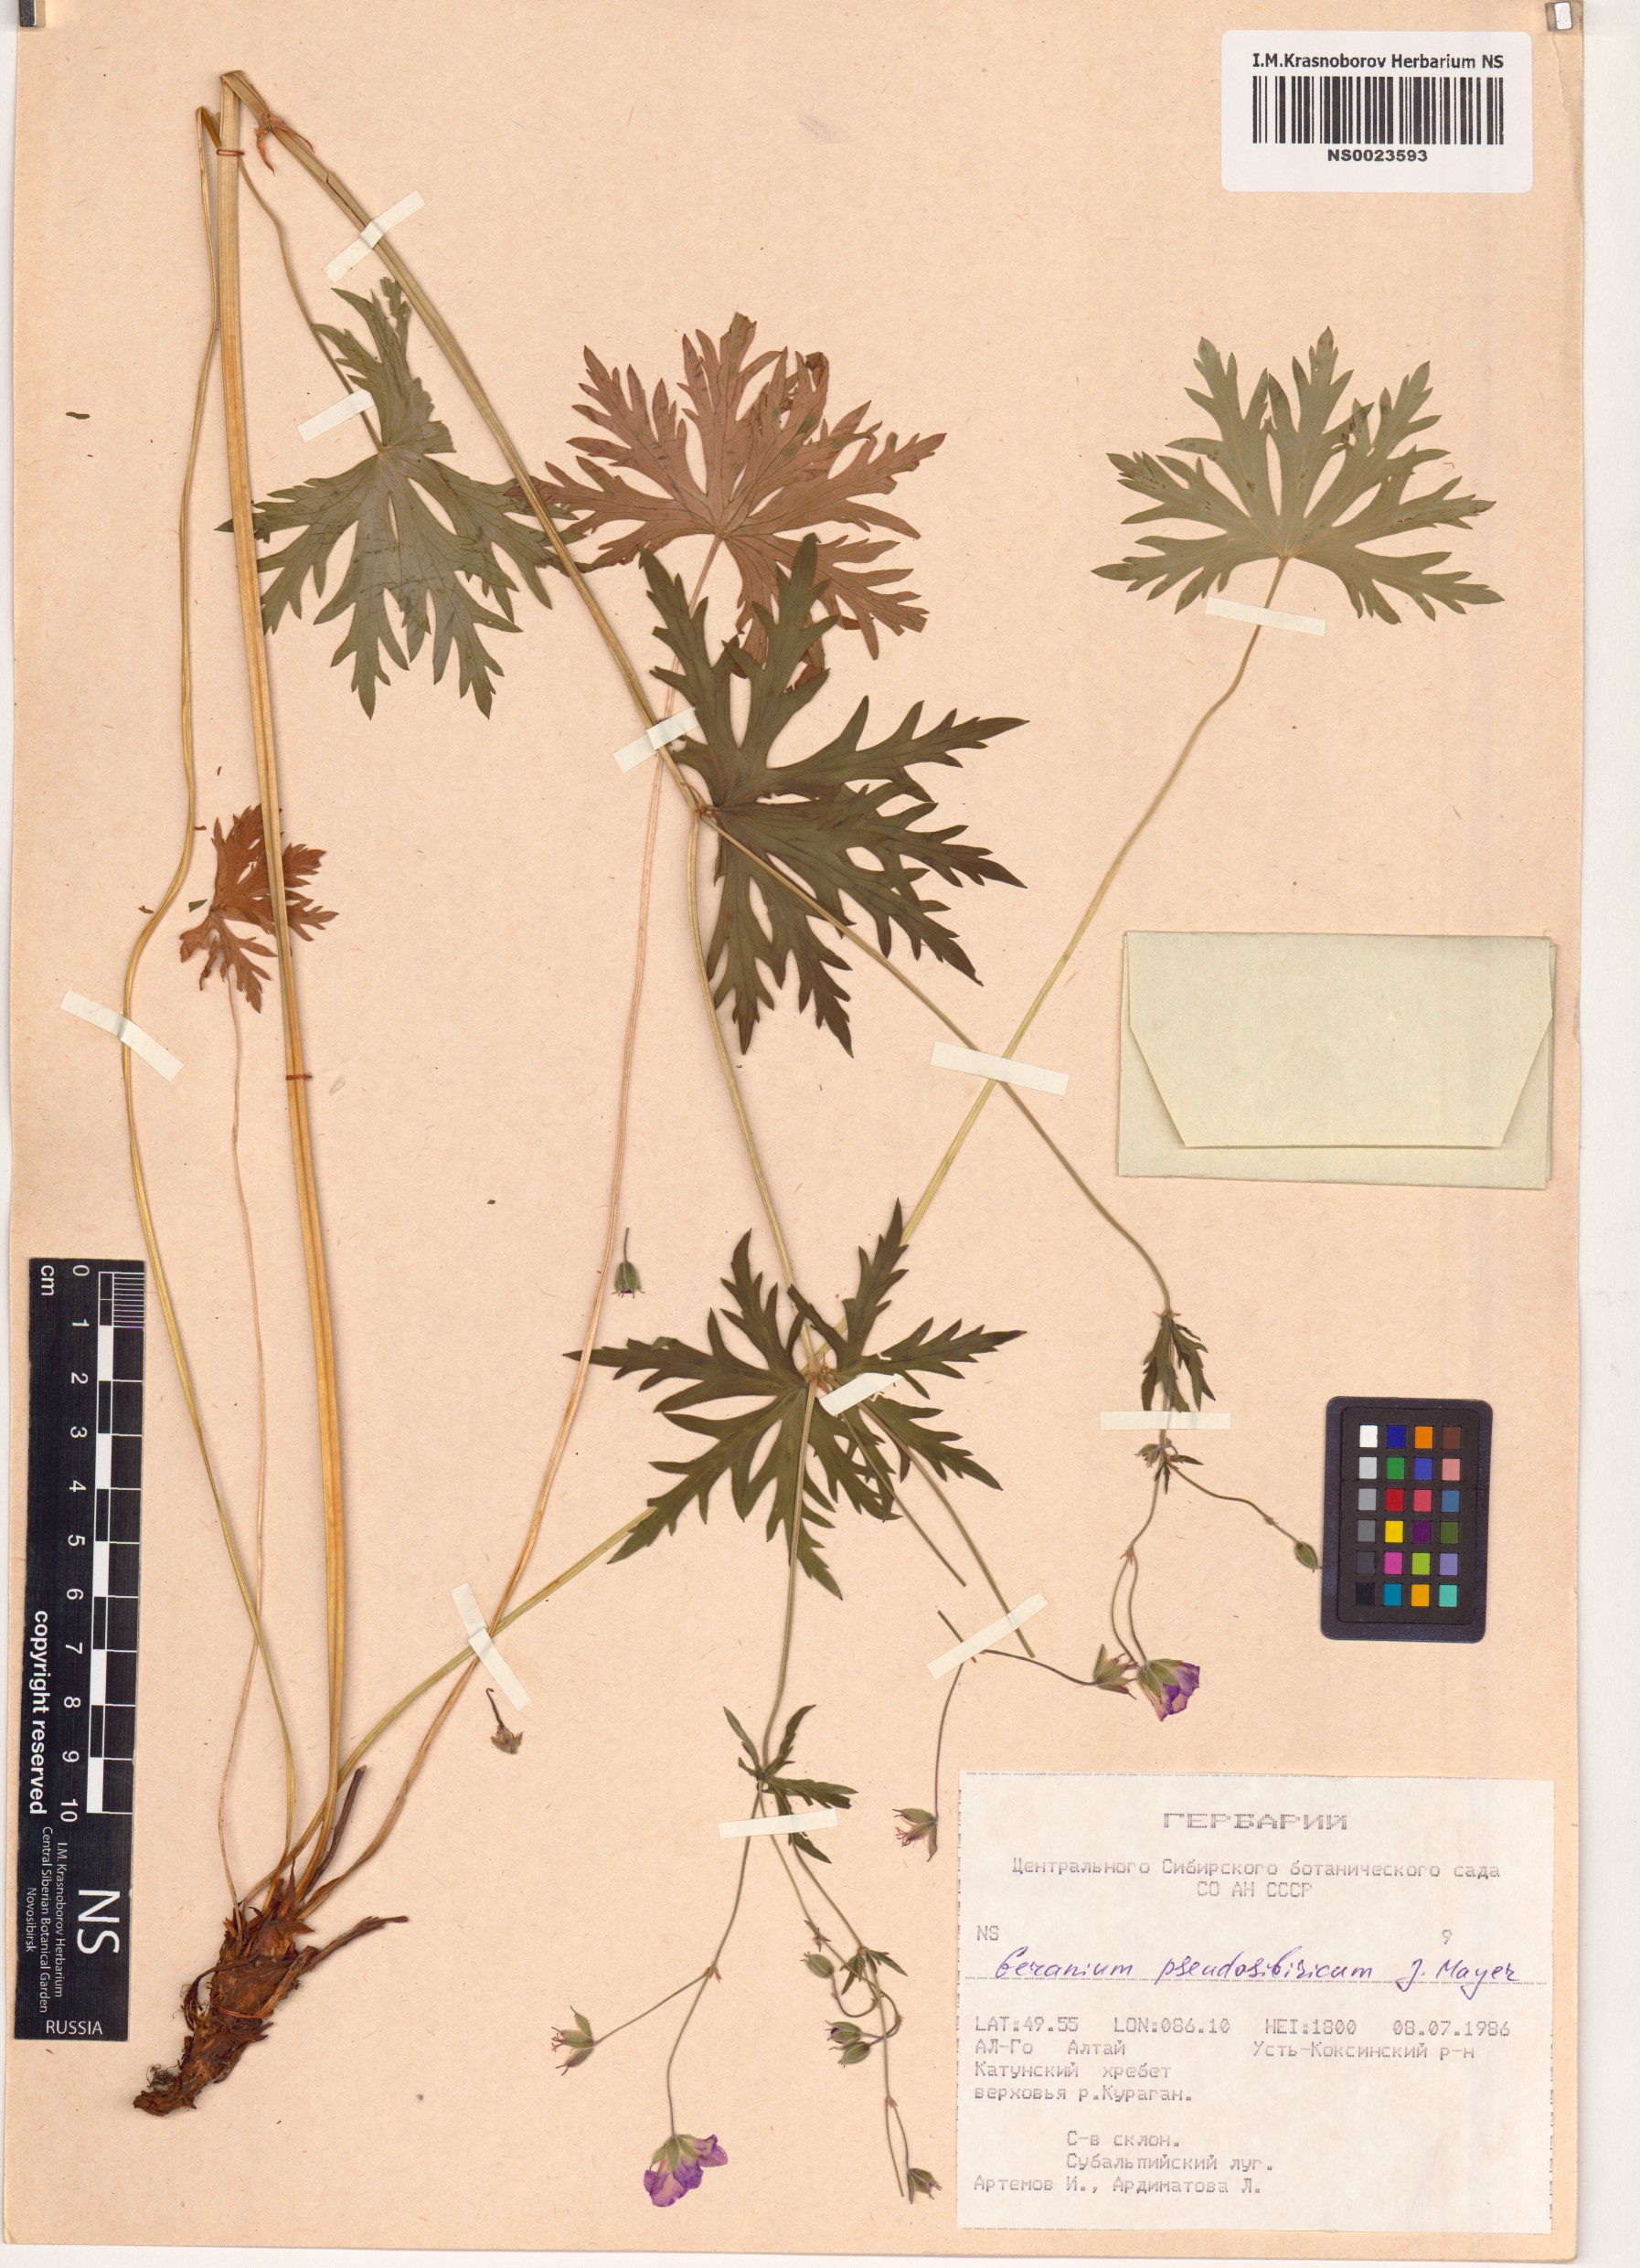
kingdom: Plantae
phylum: Tracheophyta
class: Magnoliopsida
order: Geraniales
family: Geraniaceae
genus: Geranium
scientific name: Geranium pseudosibiricum
